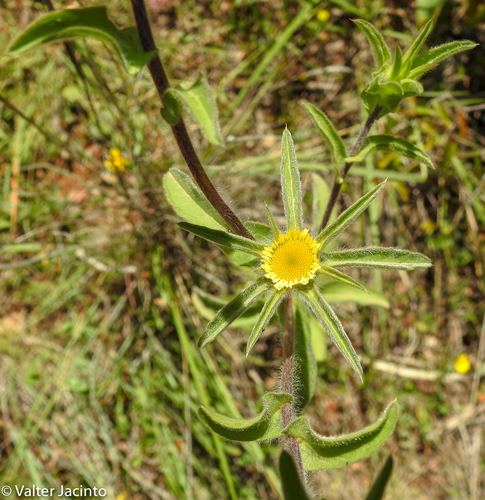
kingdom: Plantae
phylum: Tracheophyta
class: Magnoliopsida
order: Asterales
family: Asteraceae
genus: Pallenis
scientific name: Pallenis spinosa
